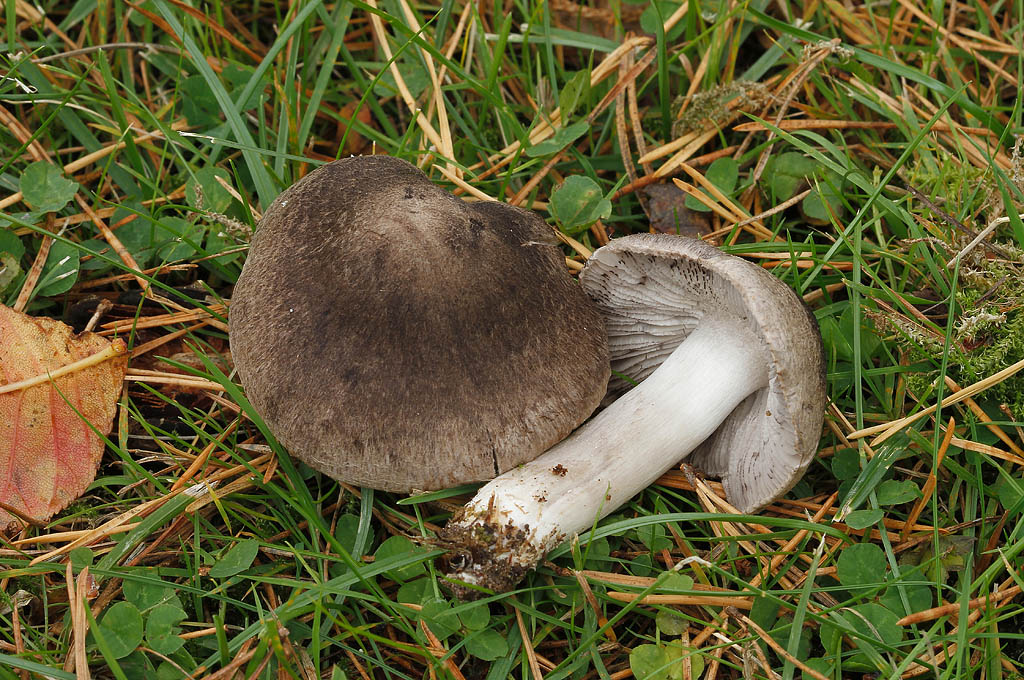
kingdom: Fungi
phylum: Basidiomycota
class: Agaricomycetes
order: Agaricales
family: Tricholomataceae
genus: Tricholoma
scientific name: Tricholoma terreum
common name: jordfarvet ridderhat
